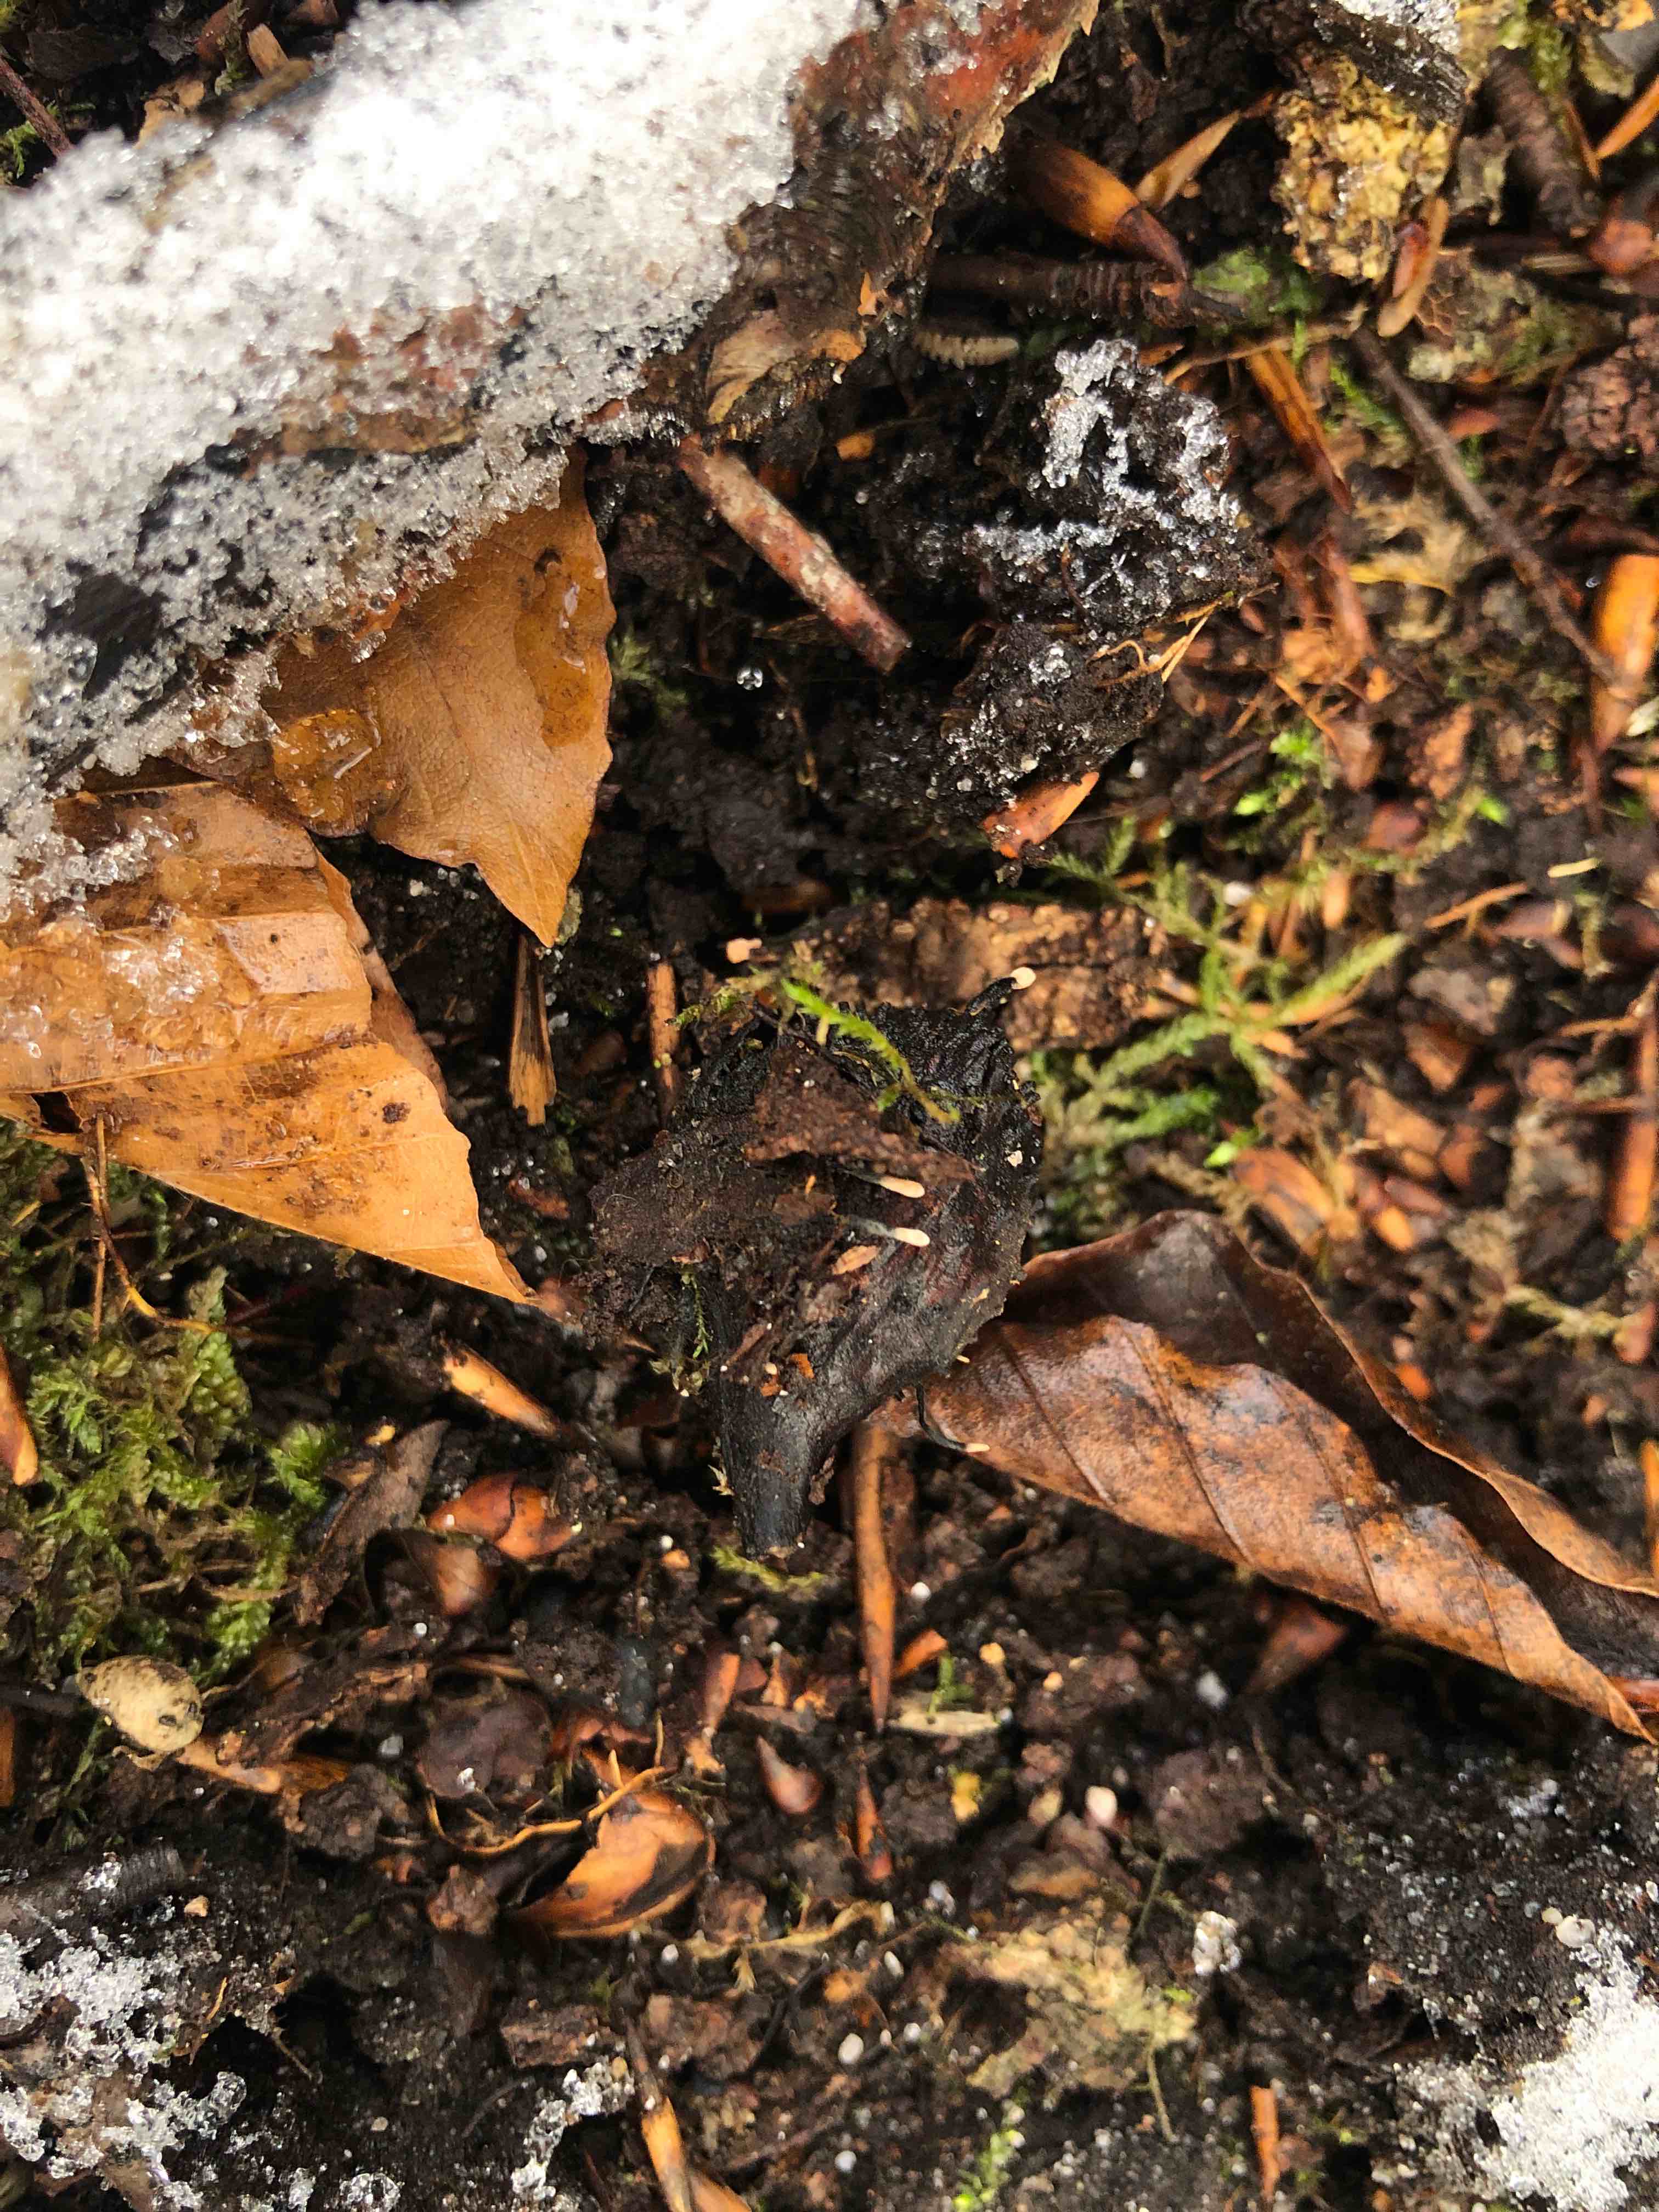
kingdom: Fungi
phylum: Ascomycota
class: Sordariomycetes
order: Xylariales
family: Xylariaceae
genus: Xylaria
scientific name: Xylaria carpophila
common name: bogskål-stødsvamp
